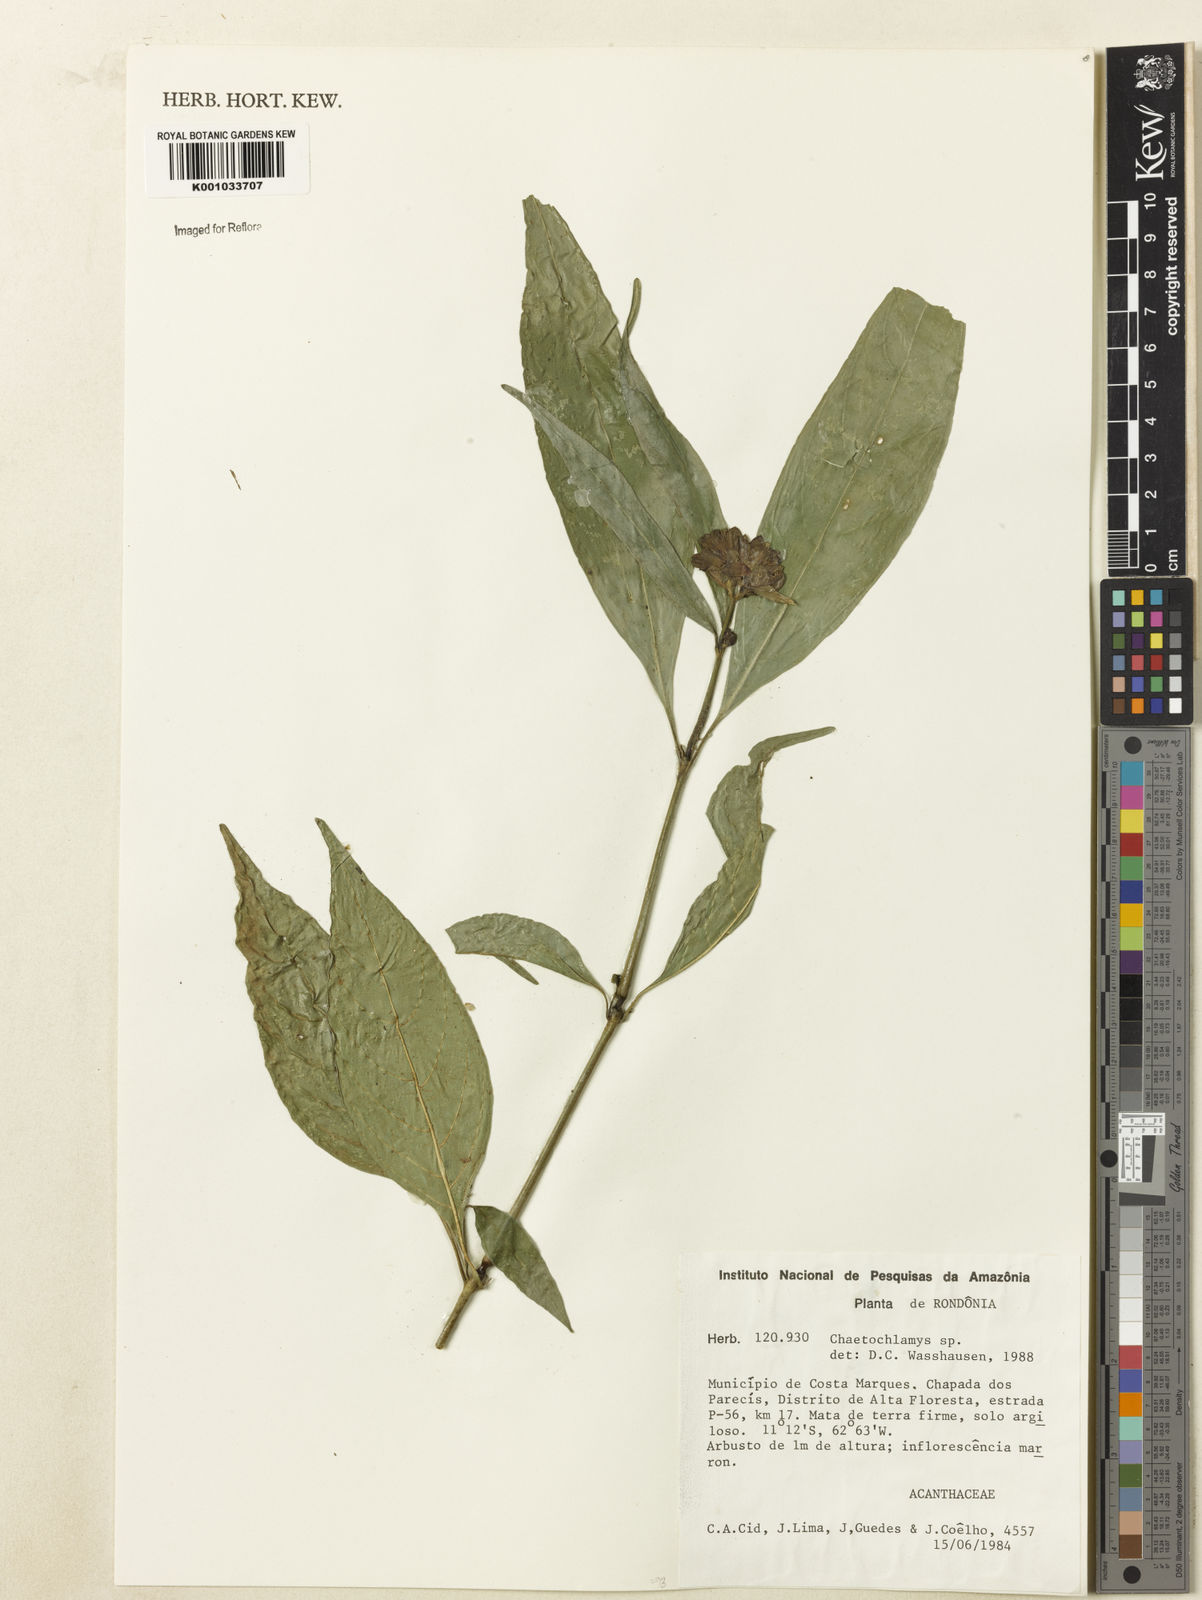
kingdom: Plantae
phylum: Tracheophyta
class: Magnoliopsida
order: Lamiales
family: Acanthaceae
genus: Justicia
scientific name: Justicia
